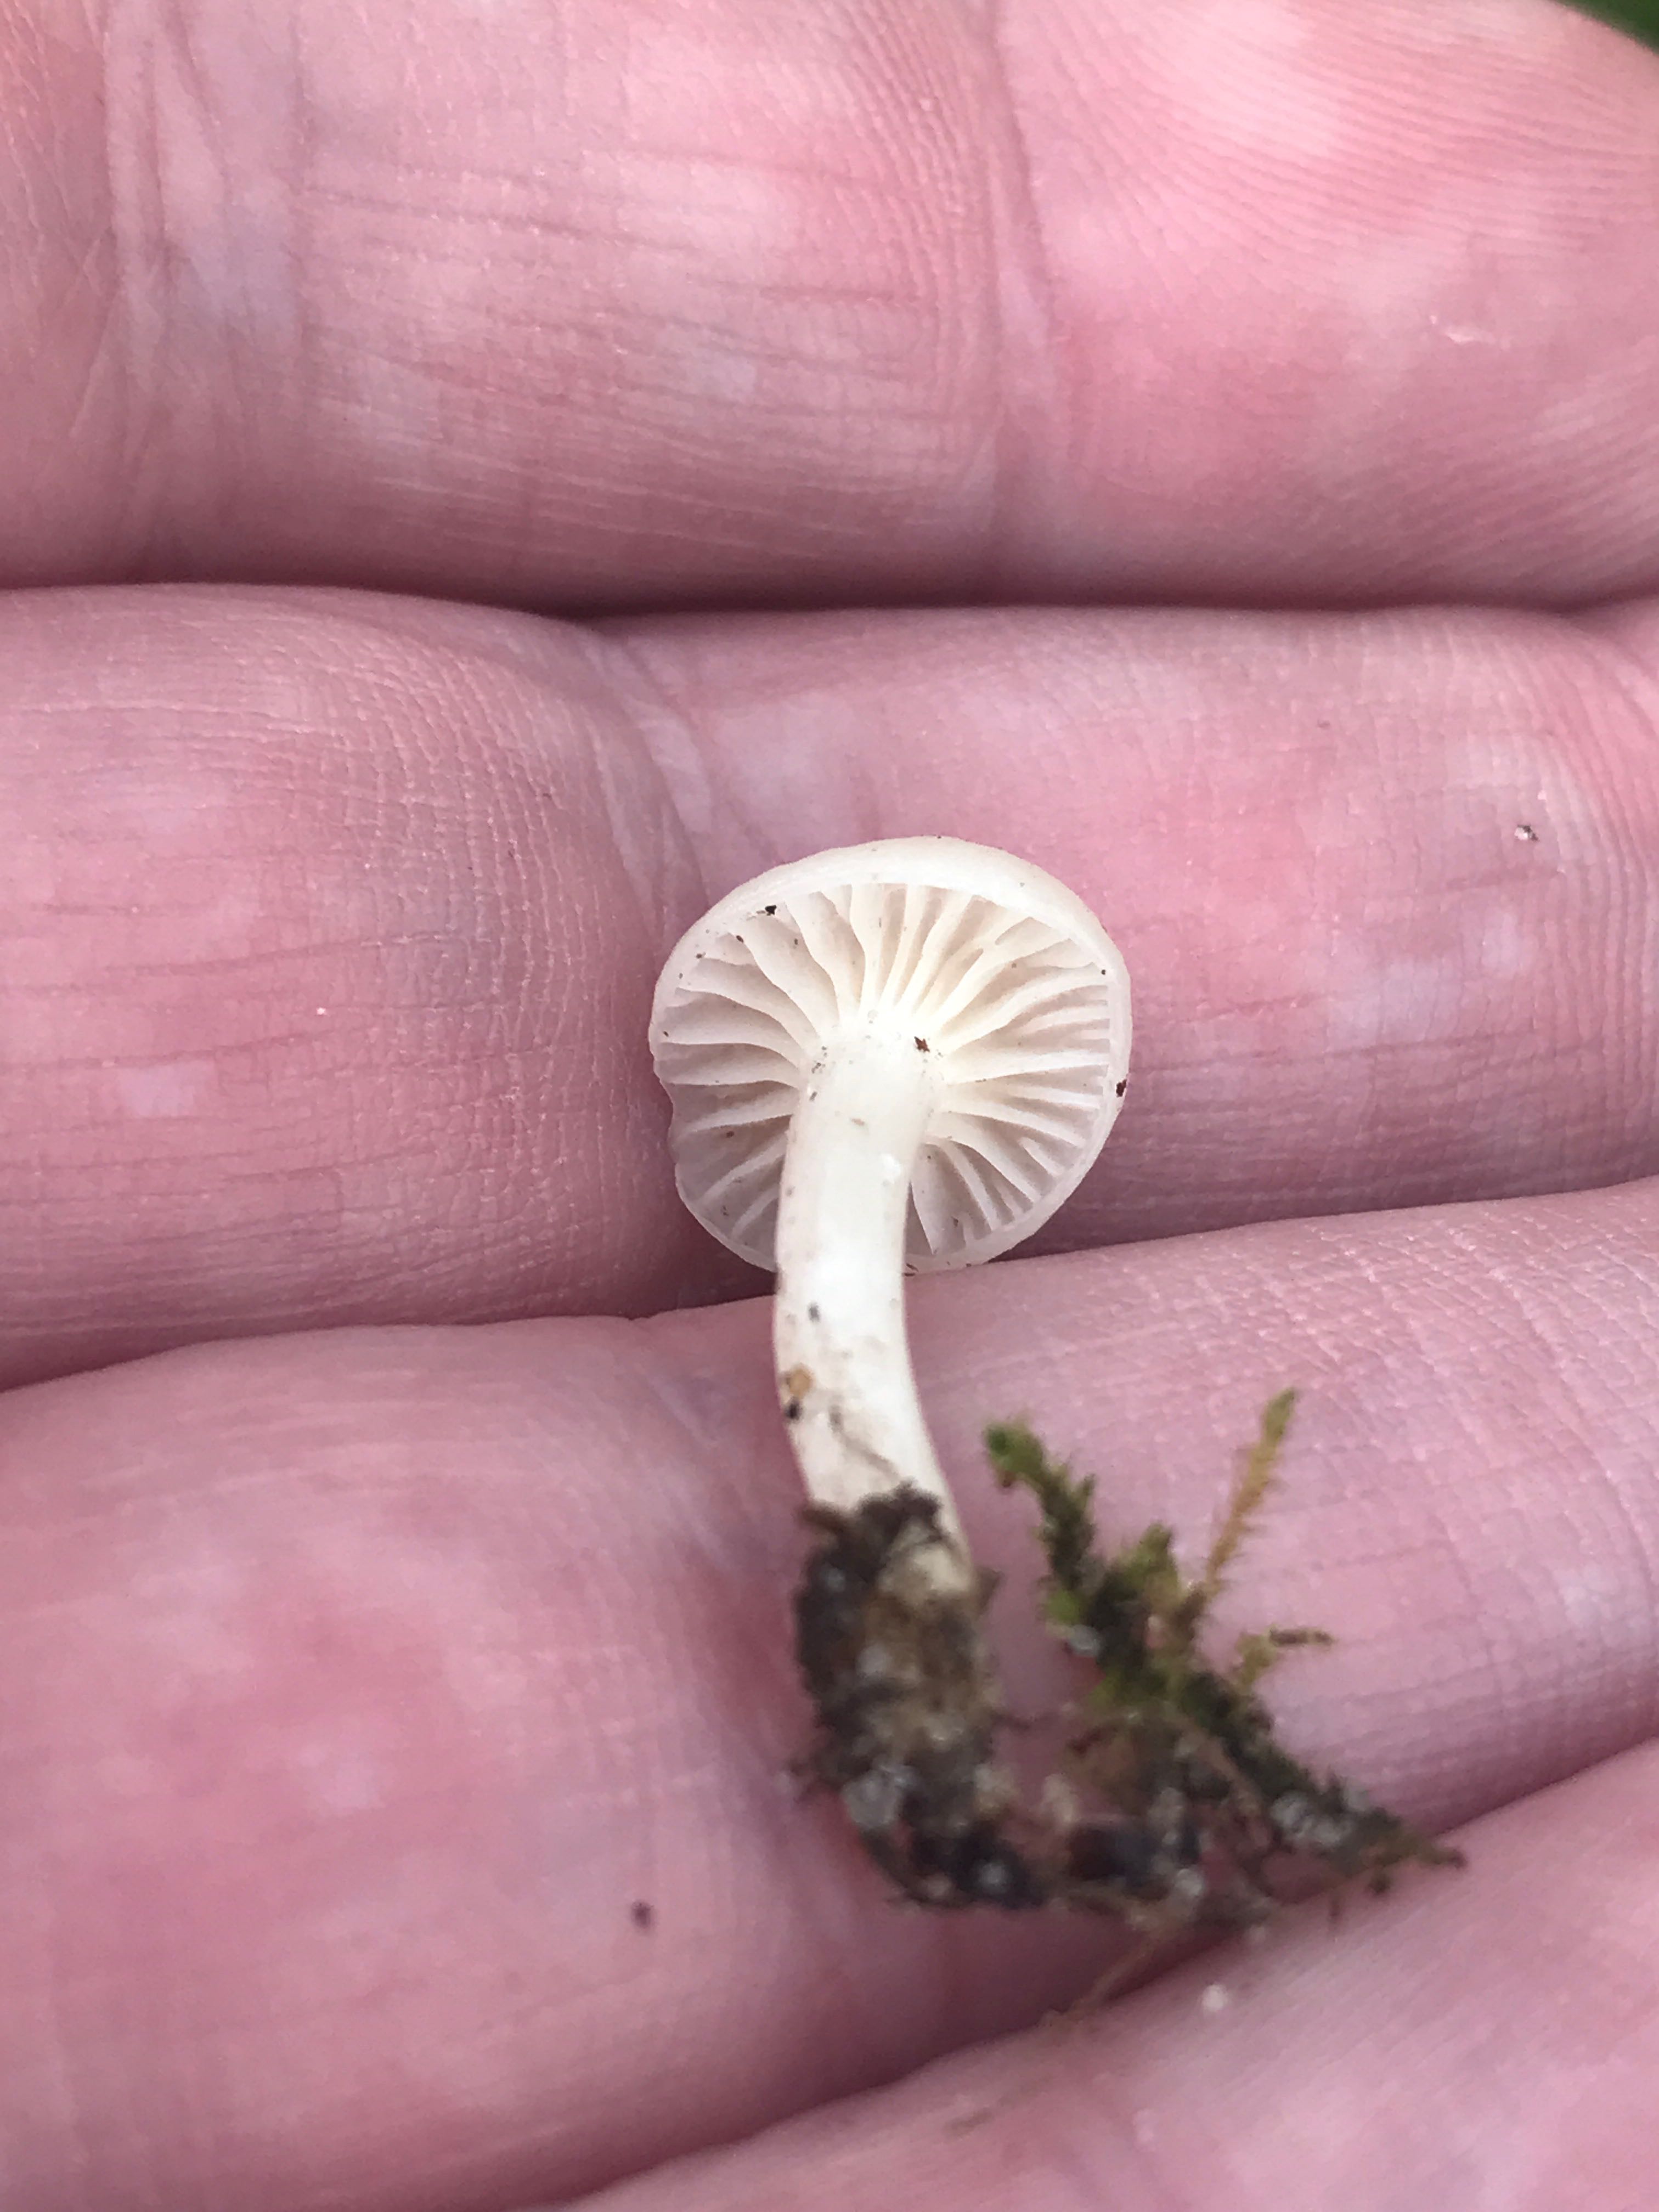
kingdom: Fungi
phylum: Basidiomycota
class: Agaricomycetes
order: Agaricales
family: Hygrophoraceae
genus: Cuphophyllus
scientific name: Cuphophyllus virgineus
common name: snehvid vokshat
